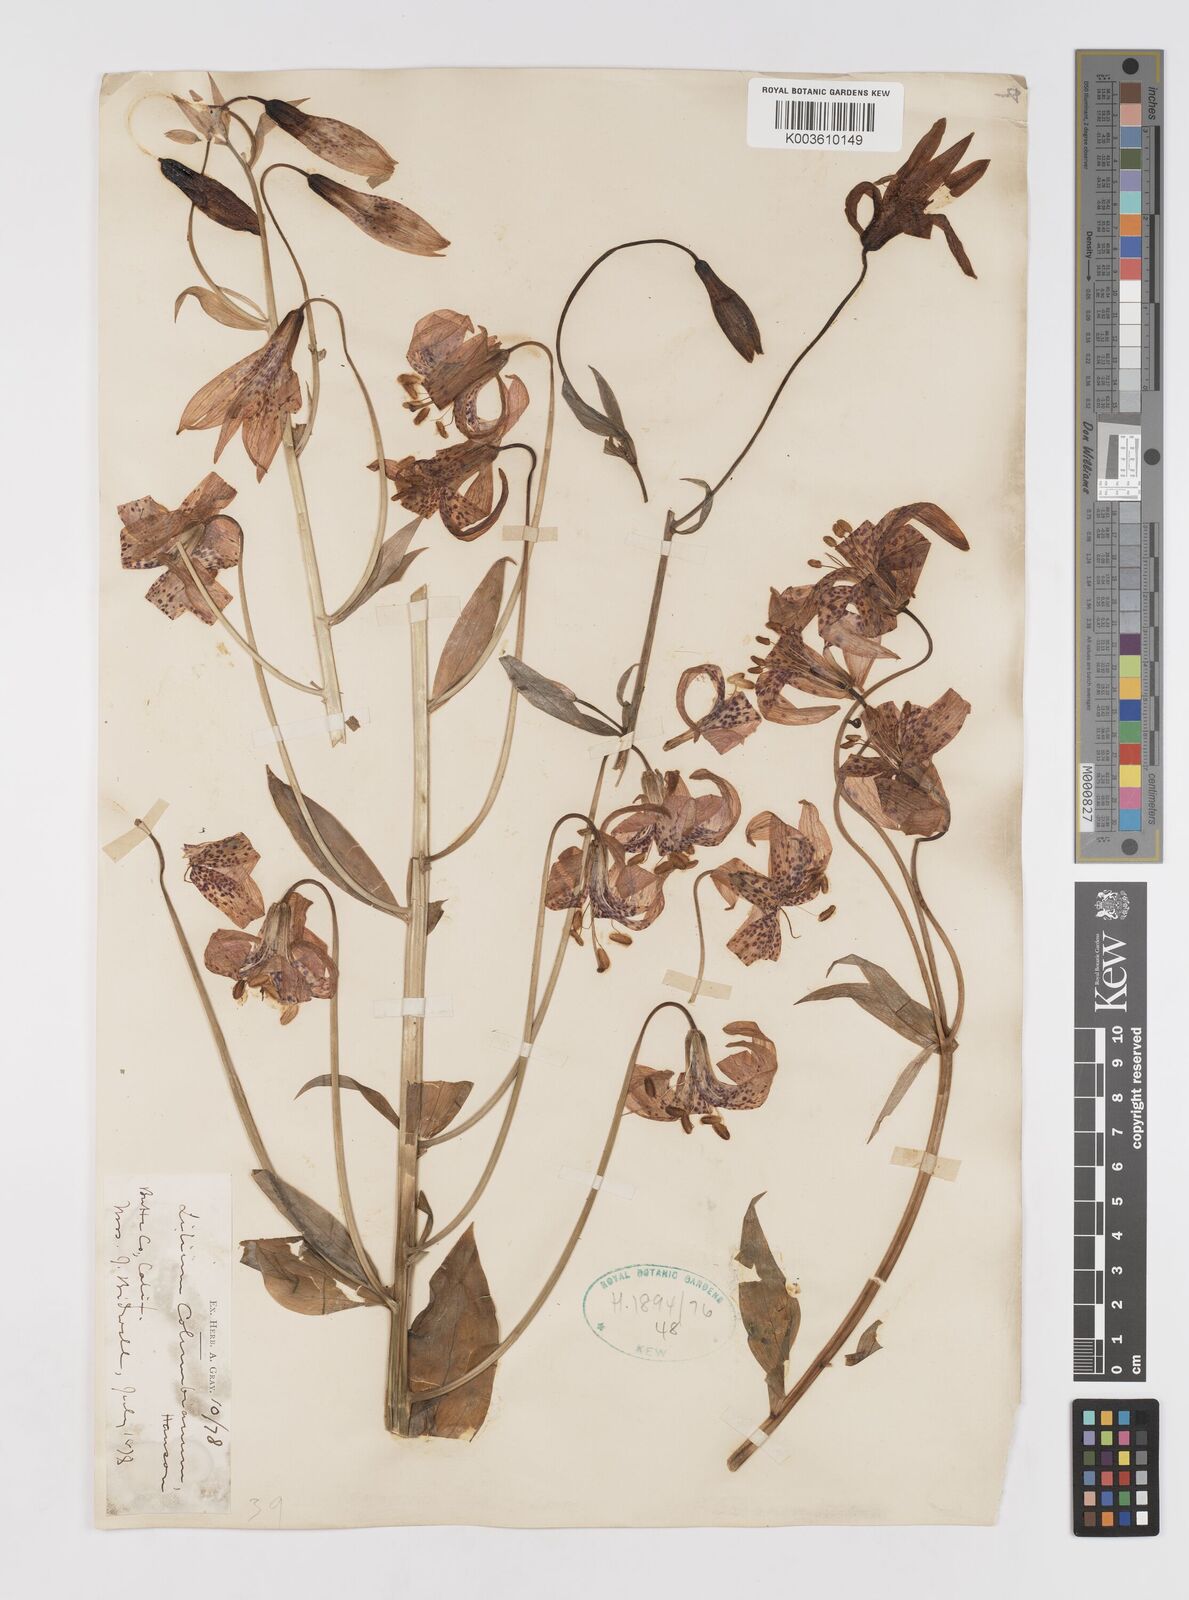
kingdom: Plantae
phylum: Tracheophyta
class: Liliopsida
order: Liliales
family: Liliaceae
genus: Lilium
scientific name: Lilium columbianum
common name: Columbia lily
